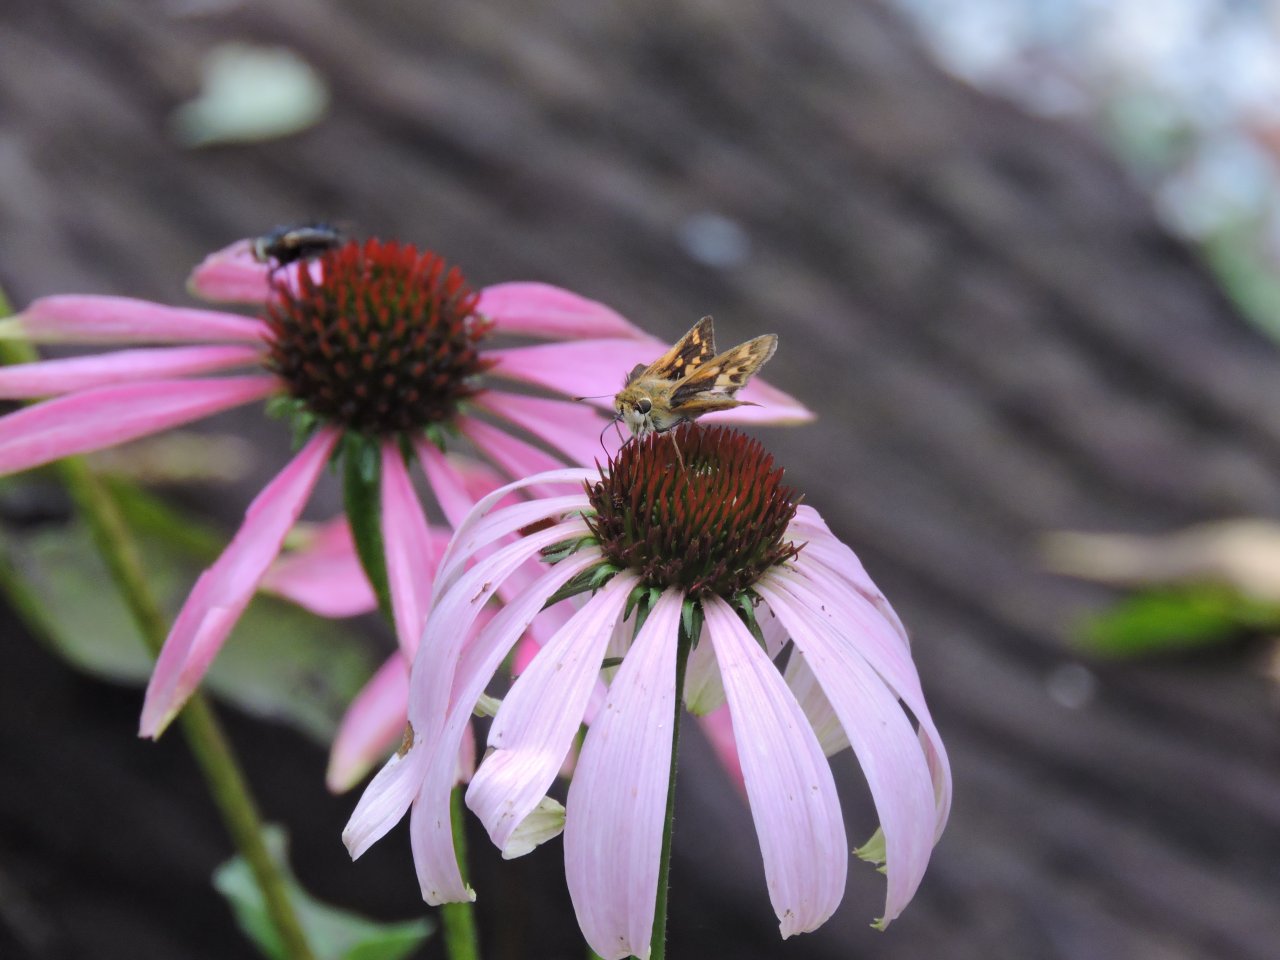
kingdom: Animalia
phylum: Arthropoda
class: Insecta
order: Lepidoptera
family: Hesperiidae
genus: Hylephila
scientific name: Hylephila phyleus
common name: Fiery Skipper
